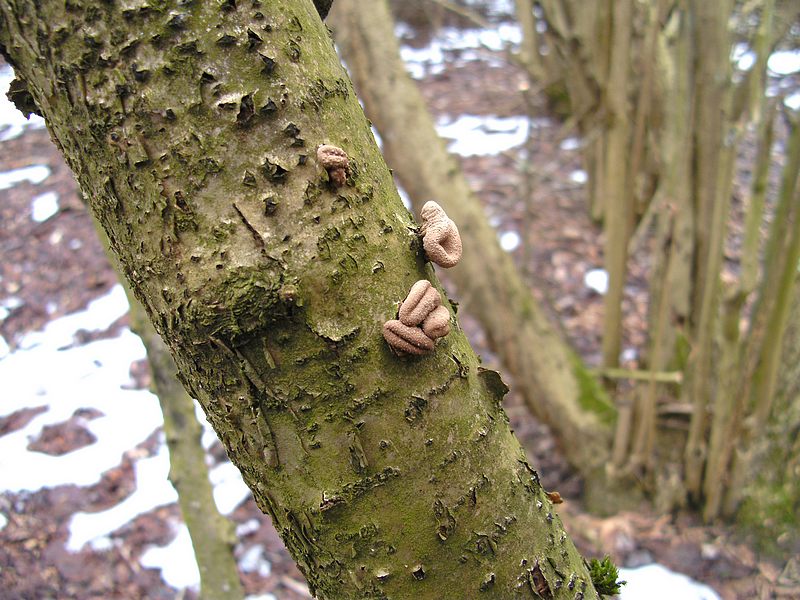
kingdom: Fungi
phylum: Ascomycota
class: Leotiomycetes
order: Helotiales
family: Cenangiaceae
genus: Encoelia
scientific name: Encoelia furfuracea
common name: hassel-læderskive
